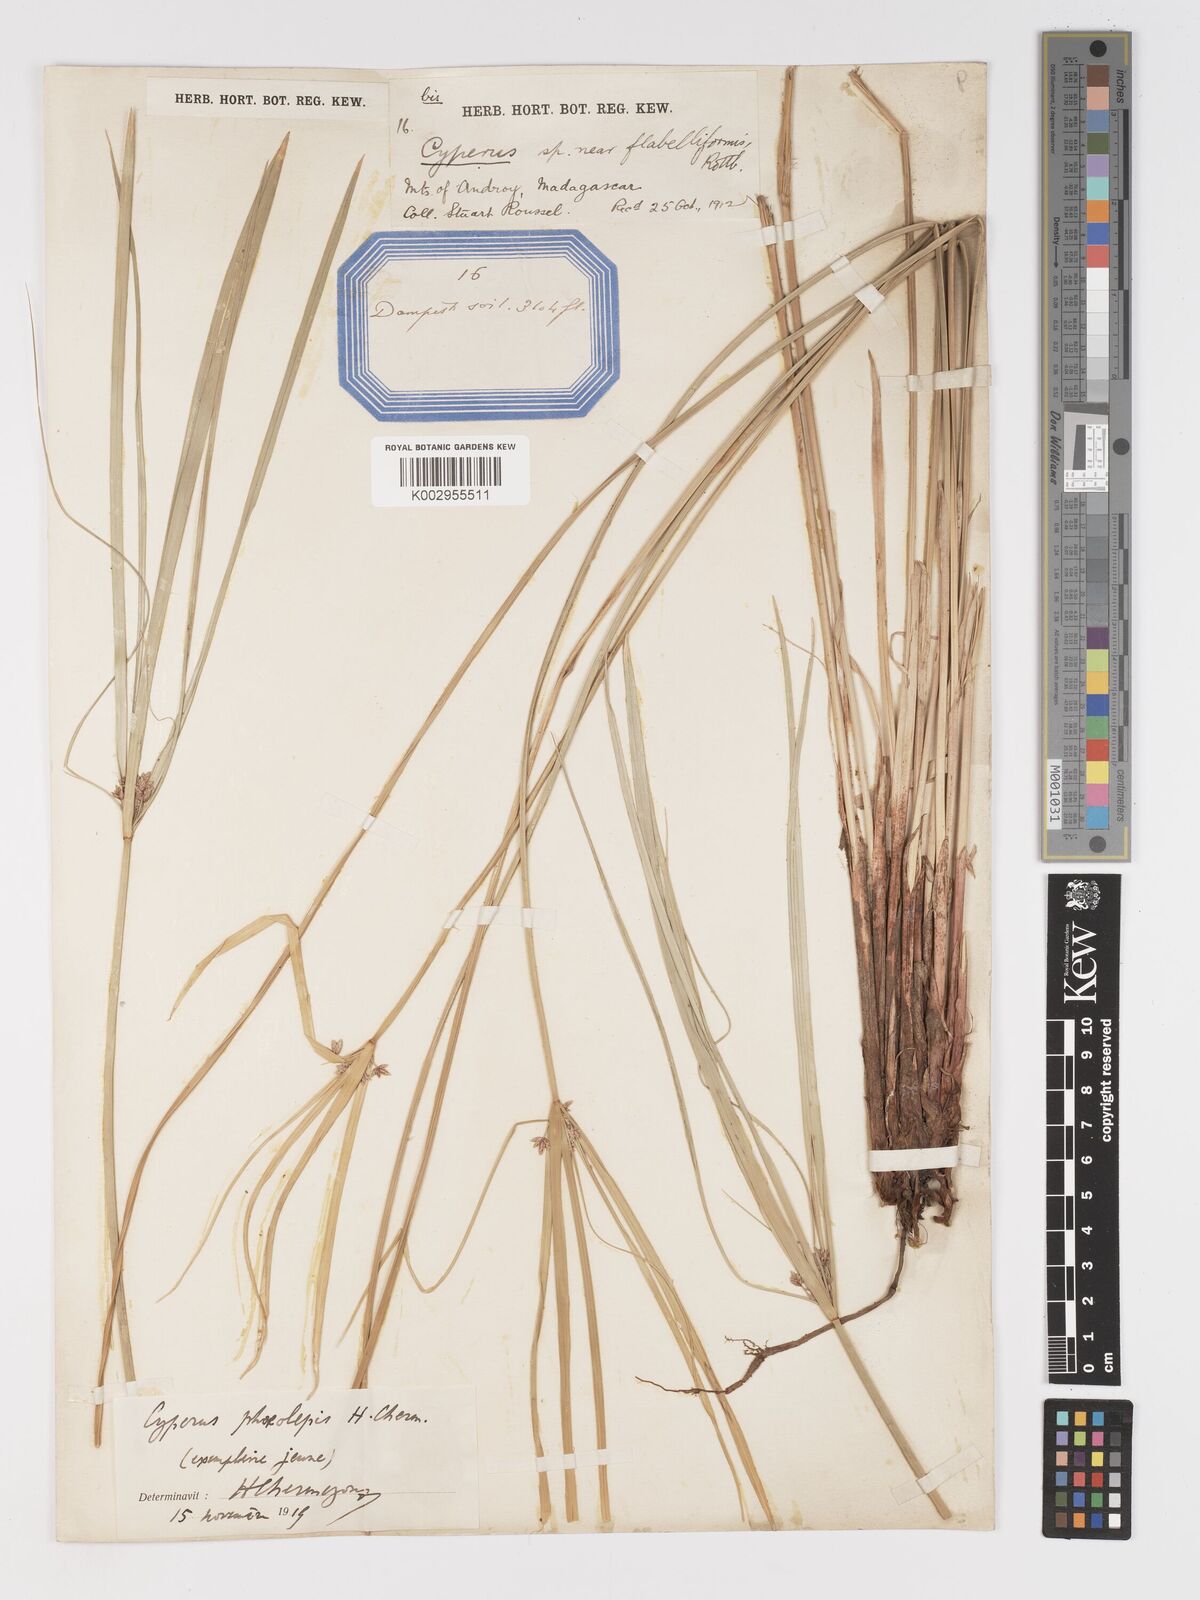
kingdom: Plantae
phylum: Tracheophyta
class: Liliopsida
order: Poales
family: Cyperaceae
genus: Cyperus
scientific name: Cyperus phaeolepis
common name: Madagascar flatsedge
